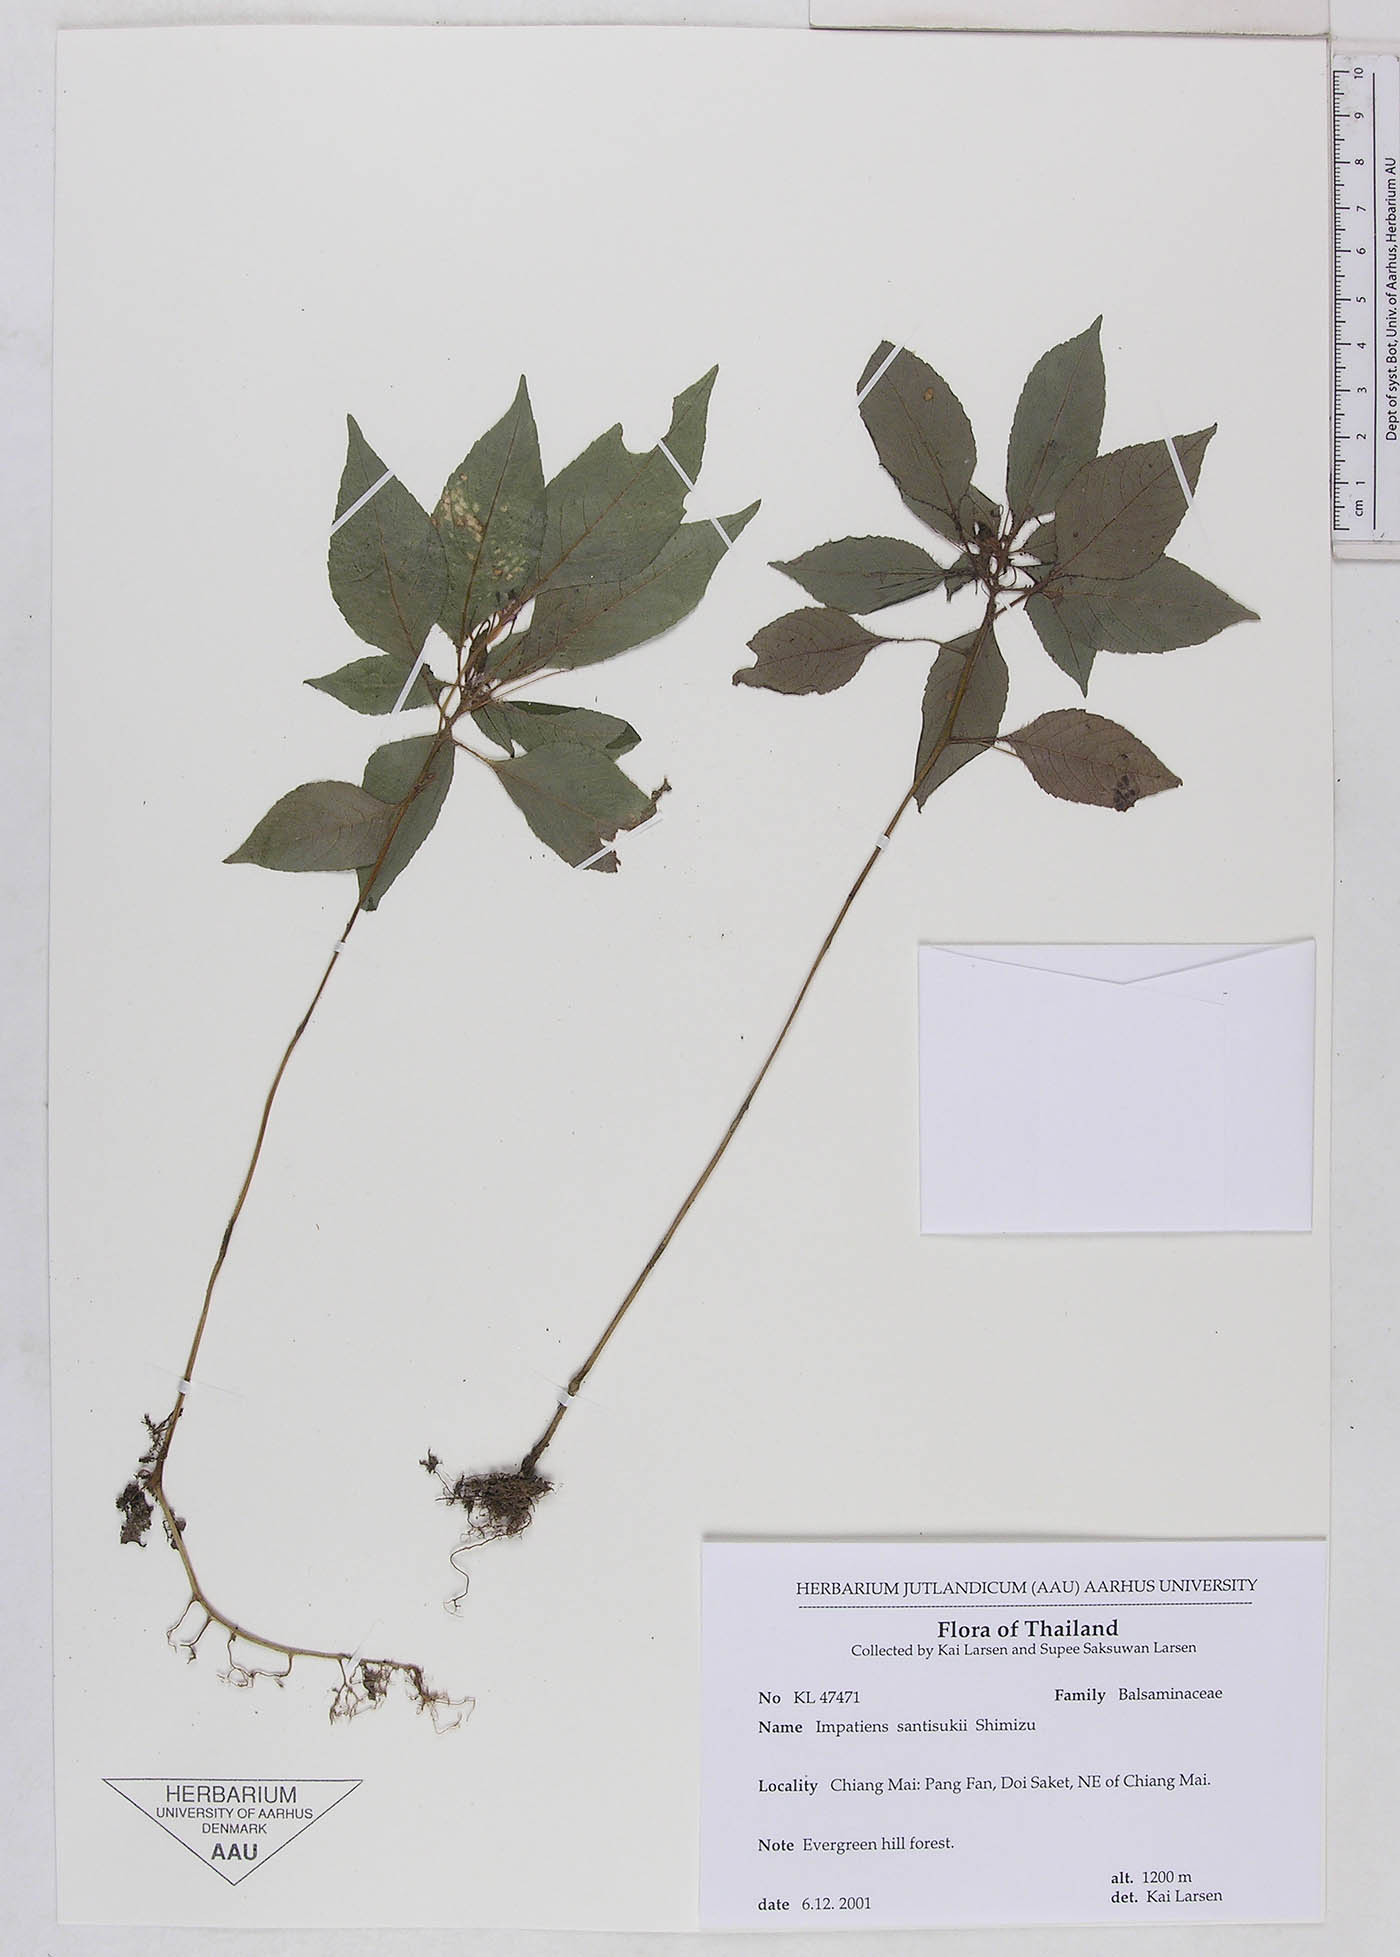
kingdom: Plantae
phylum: Tracheophyta
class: Magnoliopsida
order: Ericales
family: Balsaminaceae
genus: Impatiens
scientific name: Impatiens santisukii
